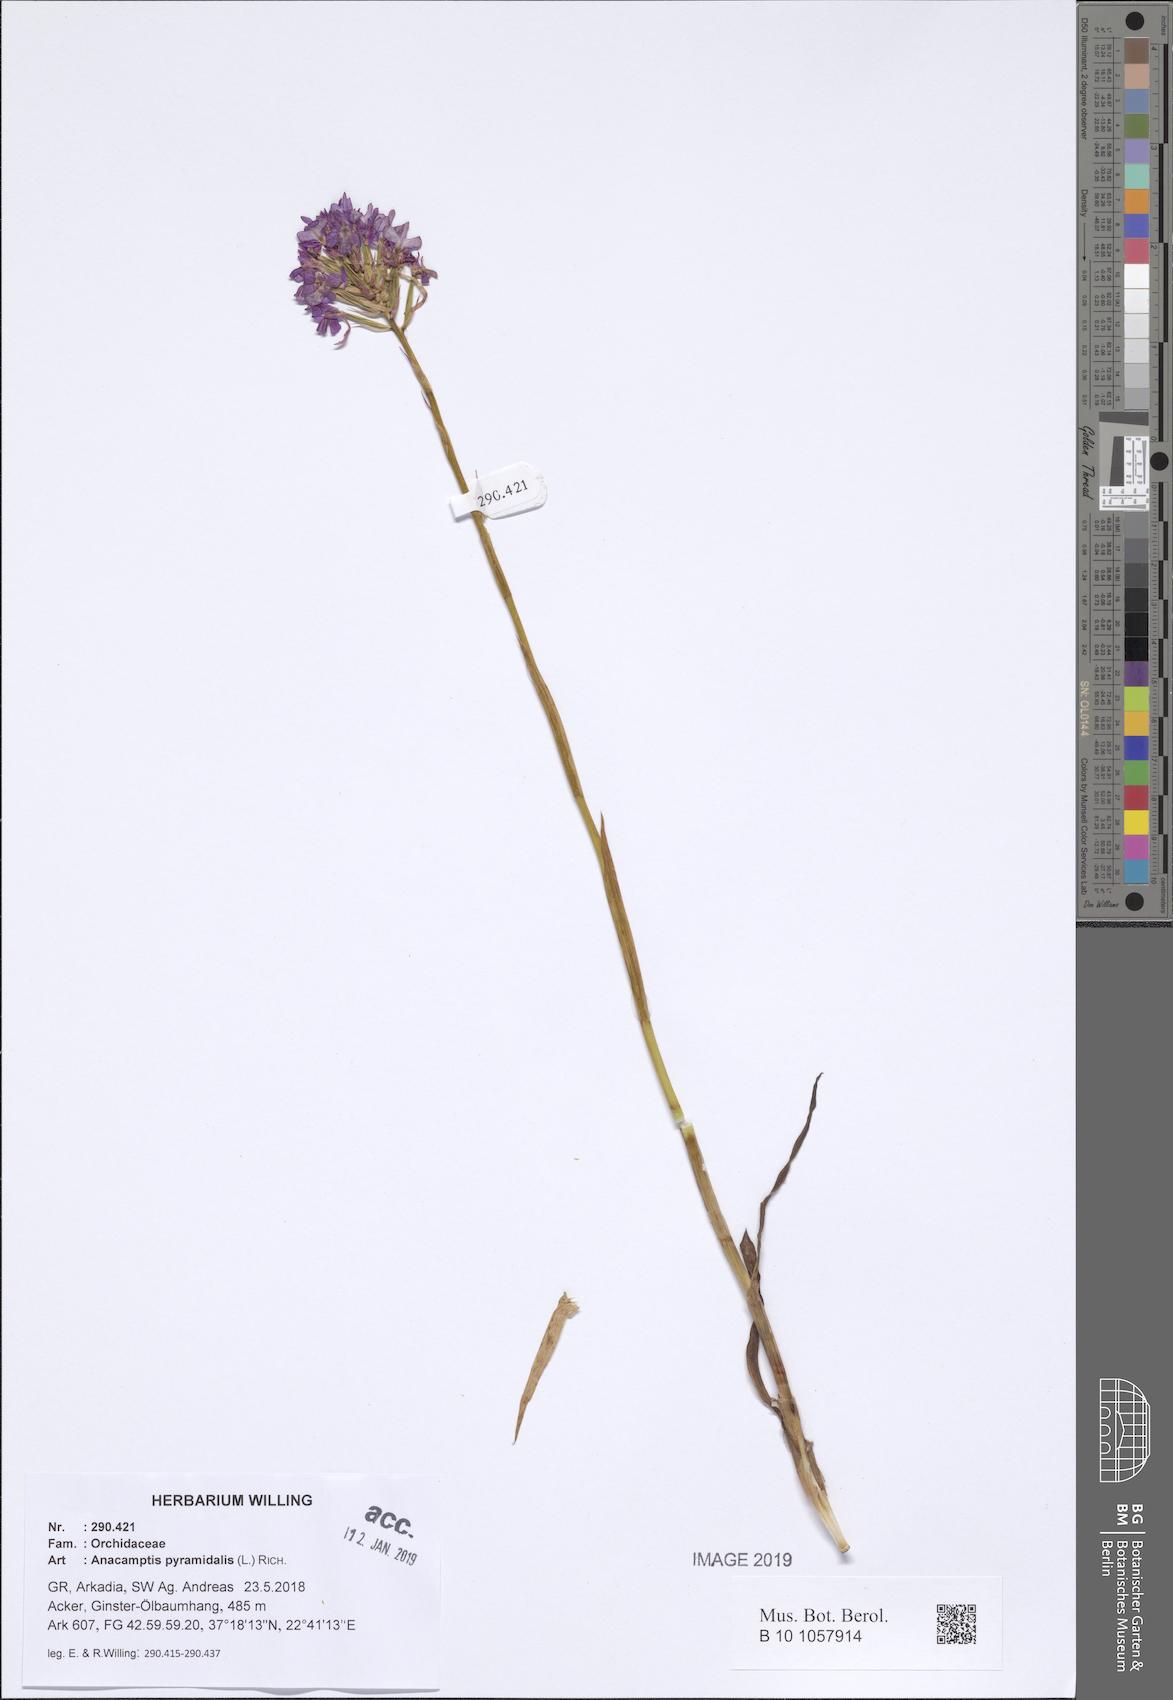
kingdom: Plantae
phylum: Tracheophyta
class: Liliopsida
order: Asparagales
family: Orchidaceae
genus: Anacamptis
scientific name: Anacamptis pyramidalis
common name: Pyramidal orchid
